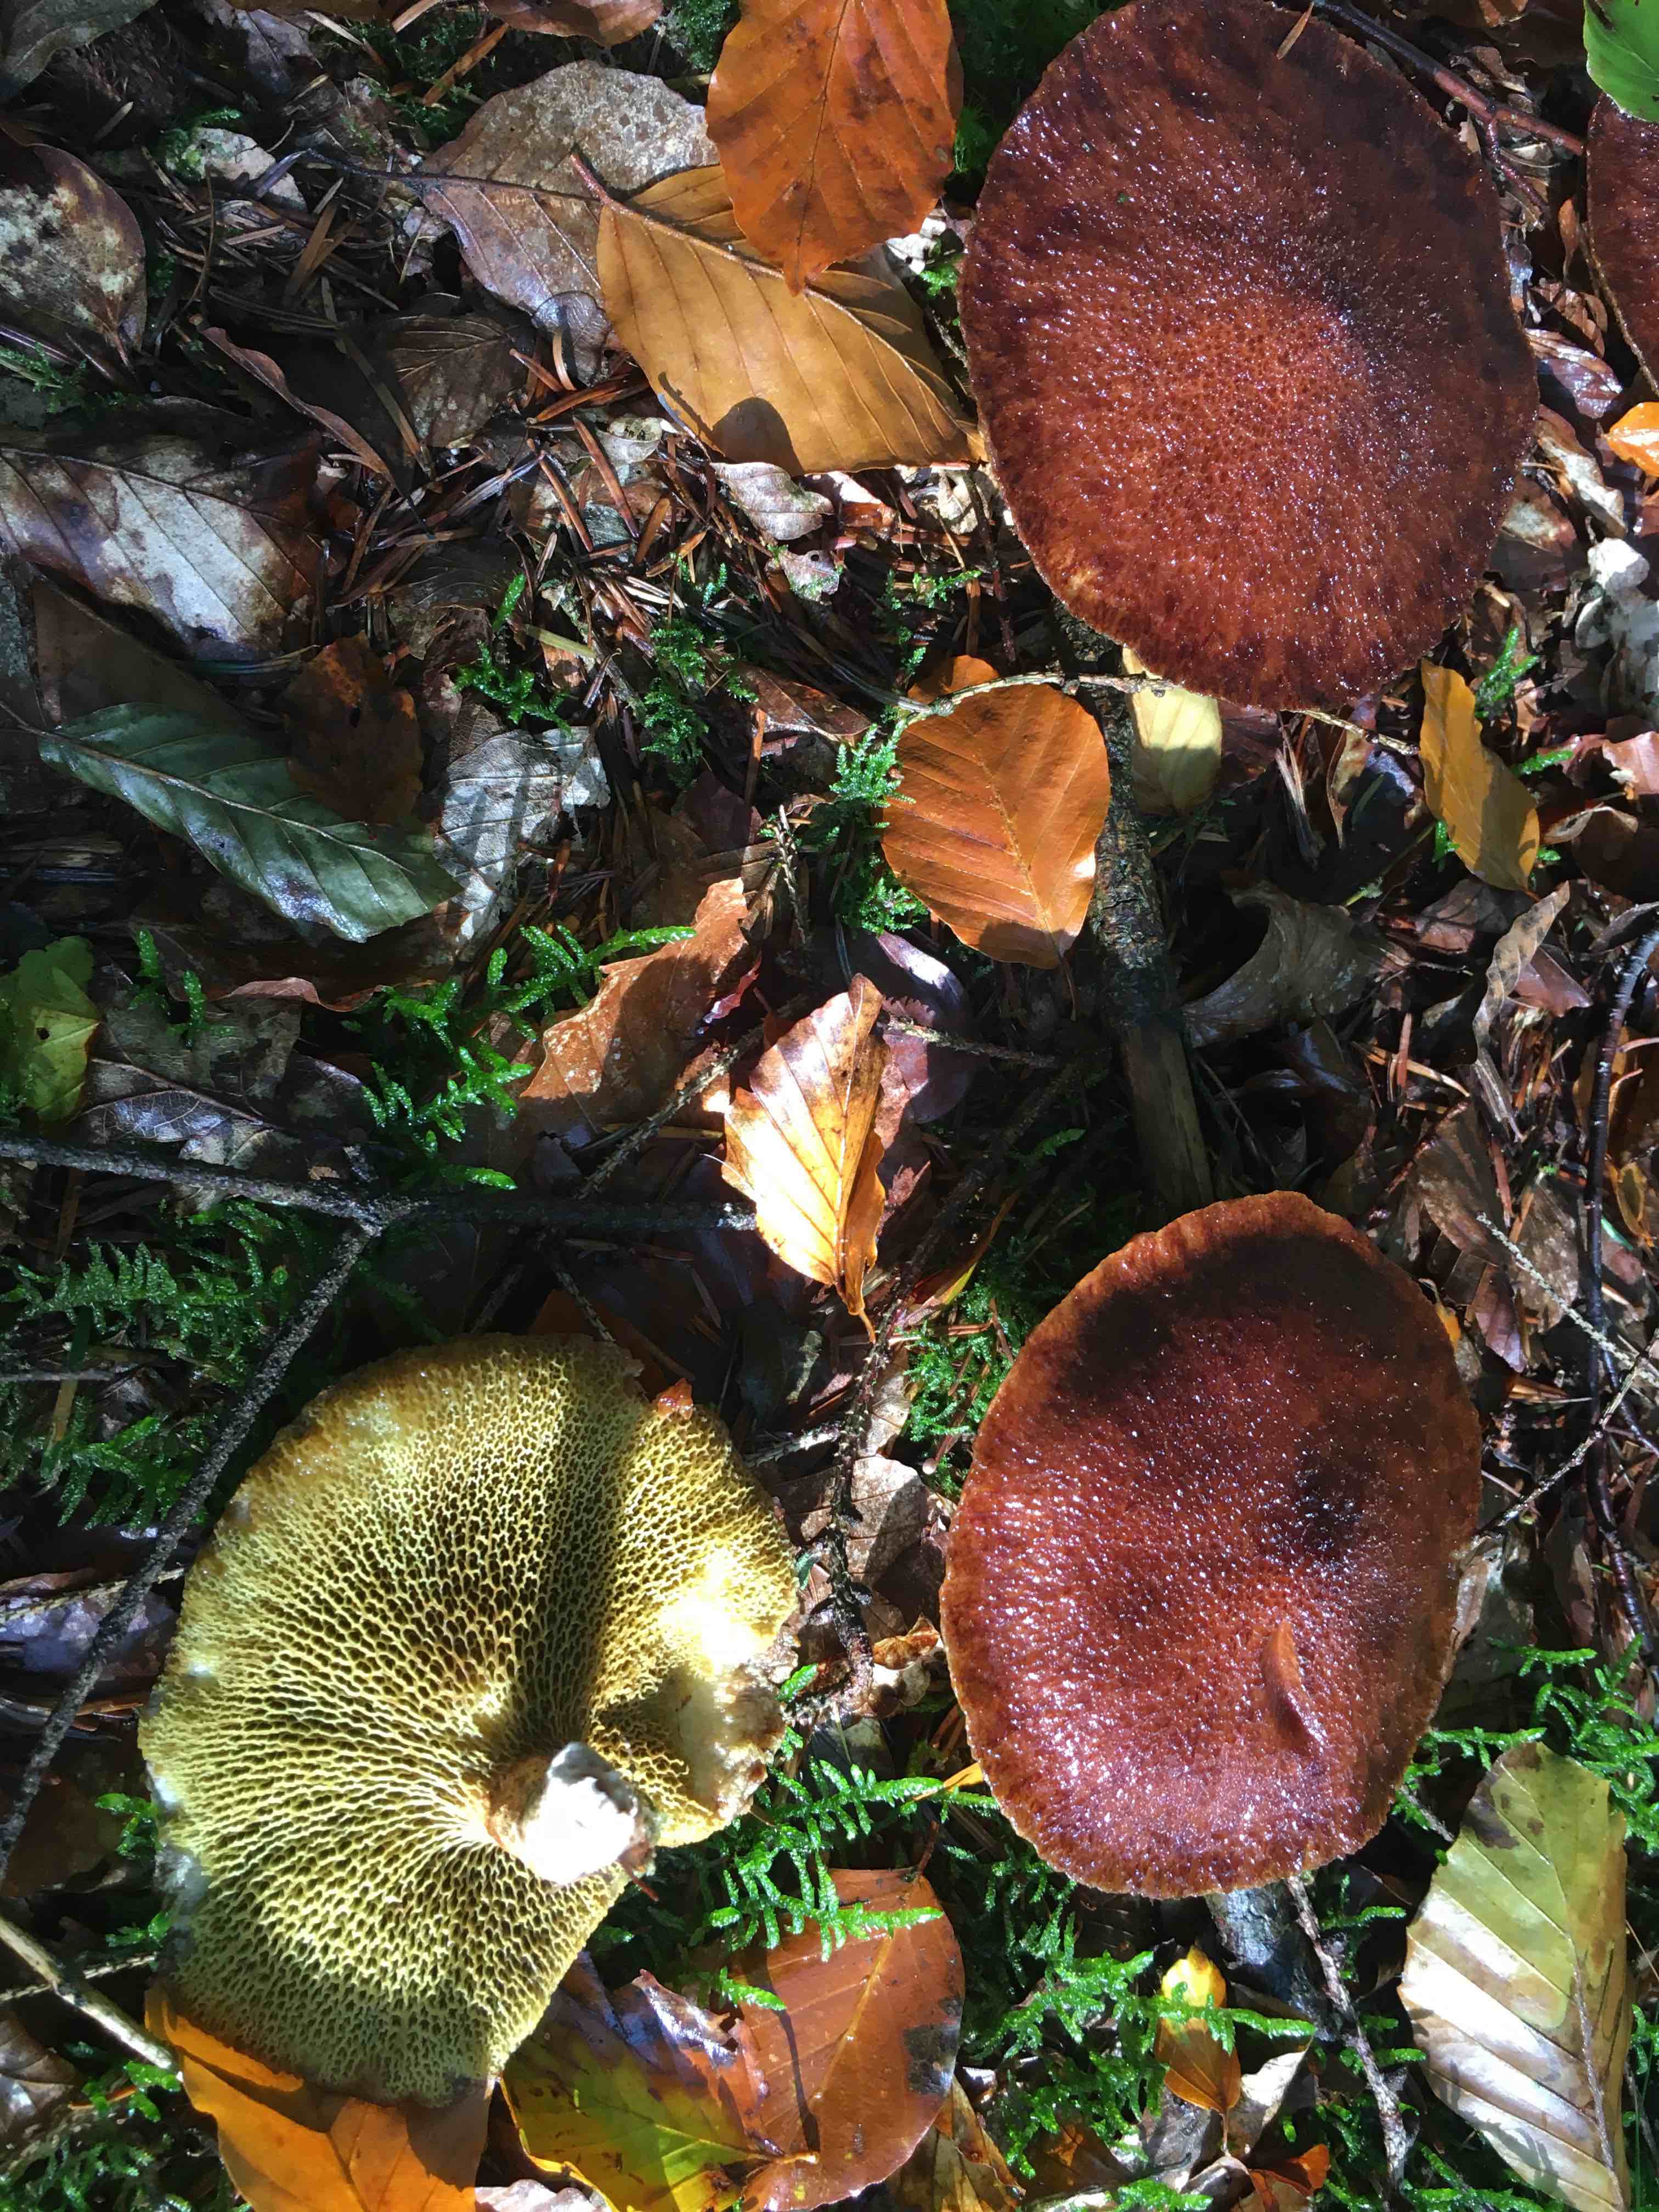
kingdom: Fungi
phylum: Basidiomycota
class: Agaricomycetes
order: Boletales
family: Suillaceae
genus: Suillus
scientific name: Suillus cavipes
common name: hulstokket slimrørhat
